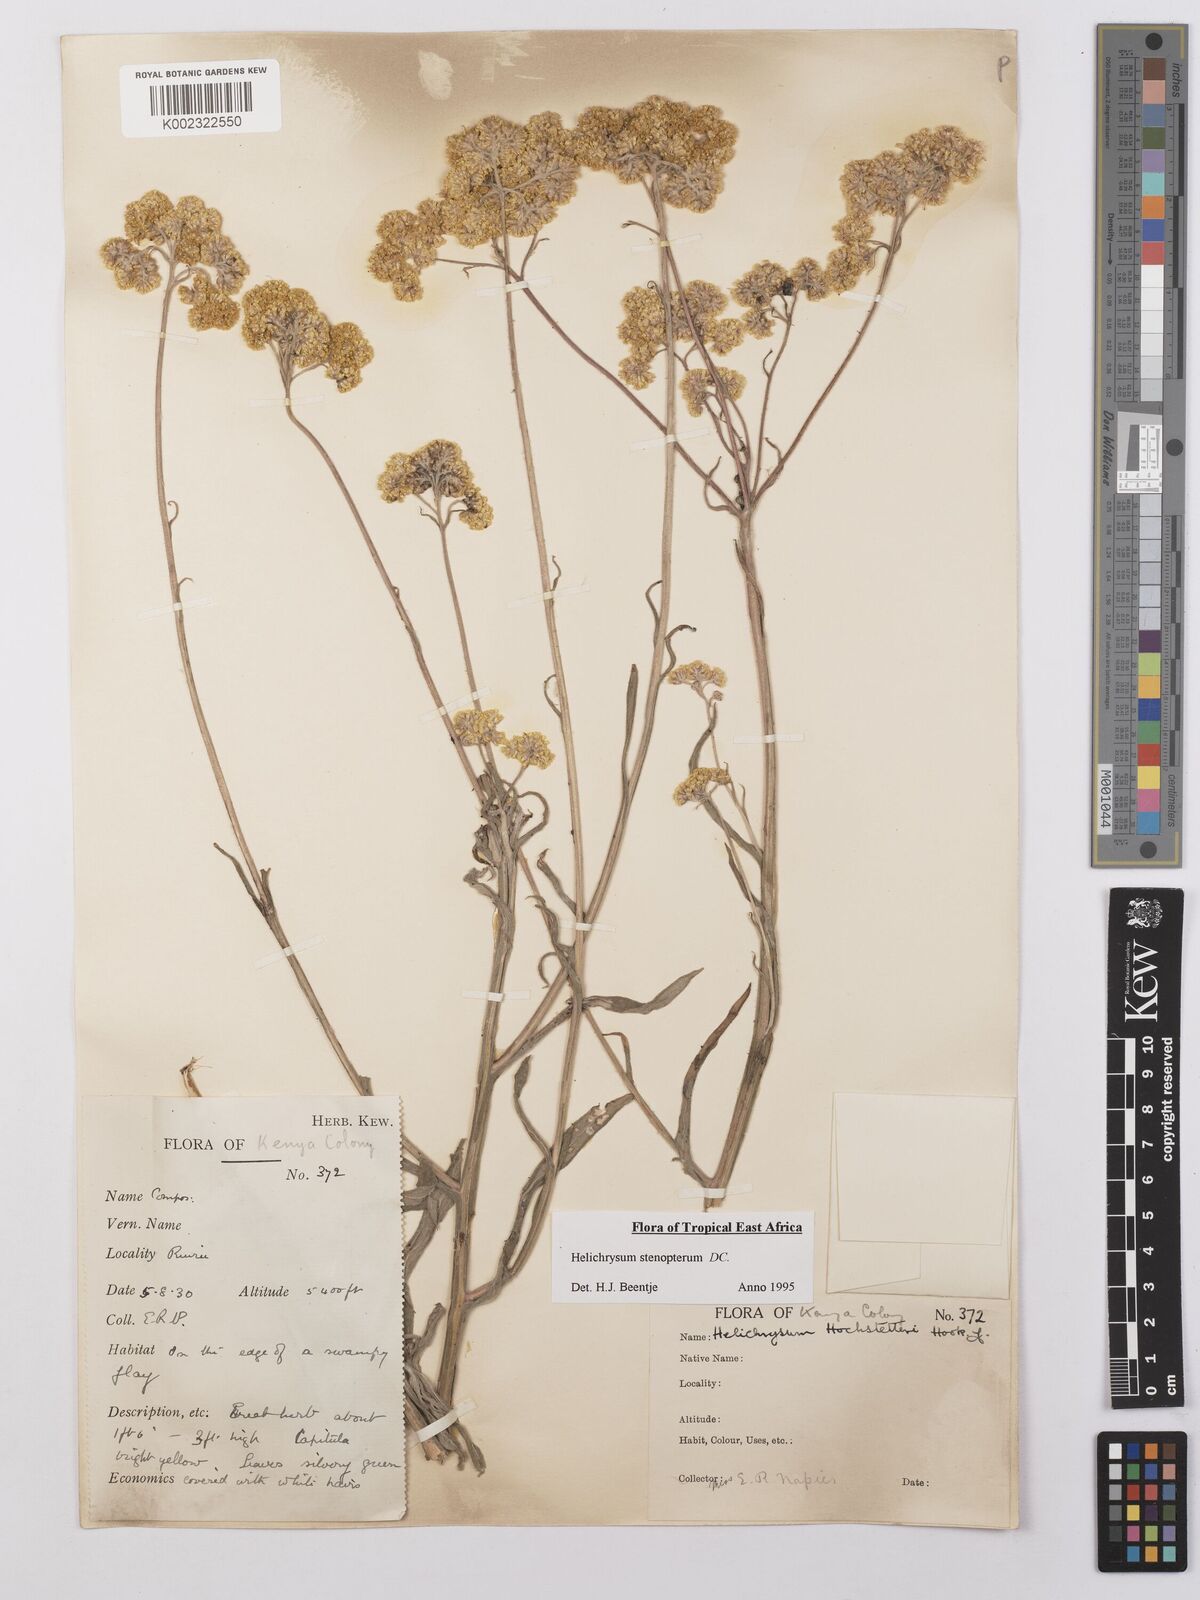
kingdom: Plantae
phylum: Tracheophyta
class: Magnoliopsida
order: Asterales
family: Asteraceae
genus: Helichrysum
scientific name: Helichrysum stenopterum
